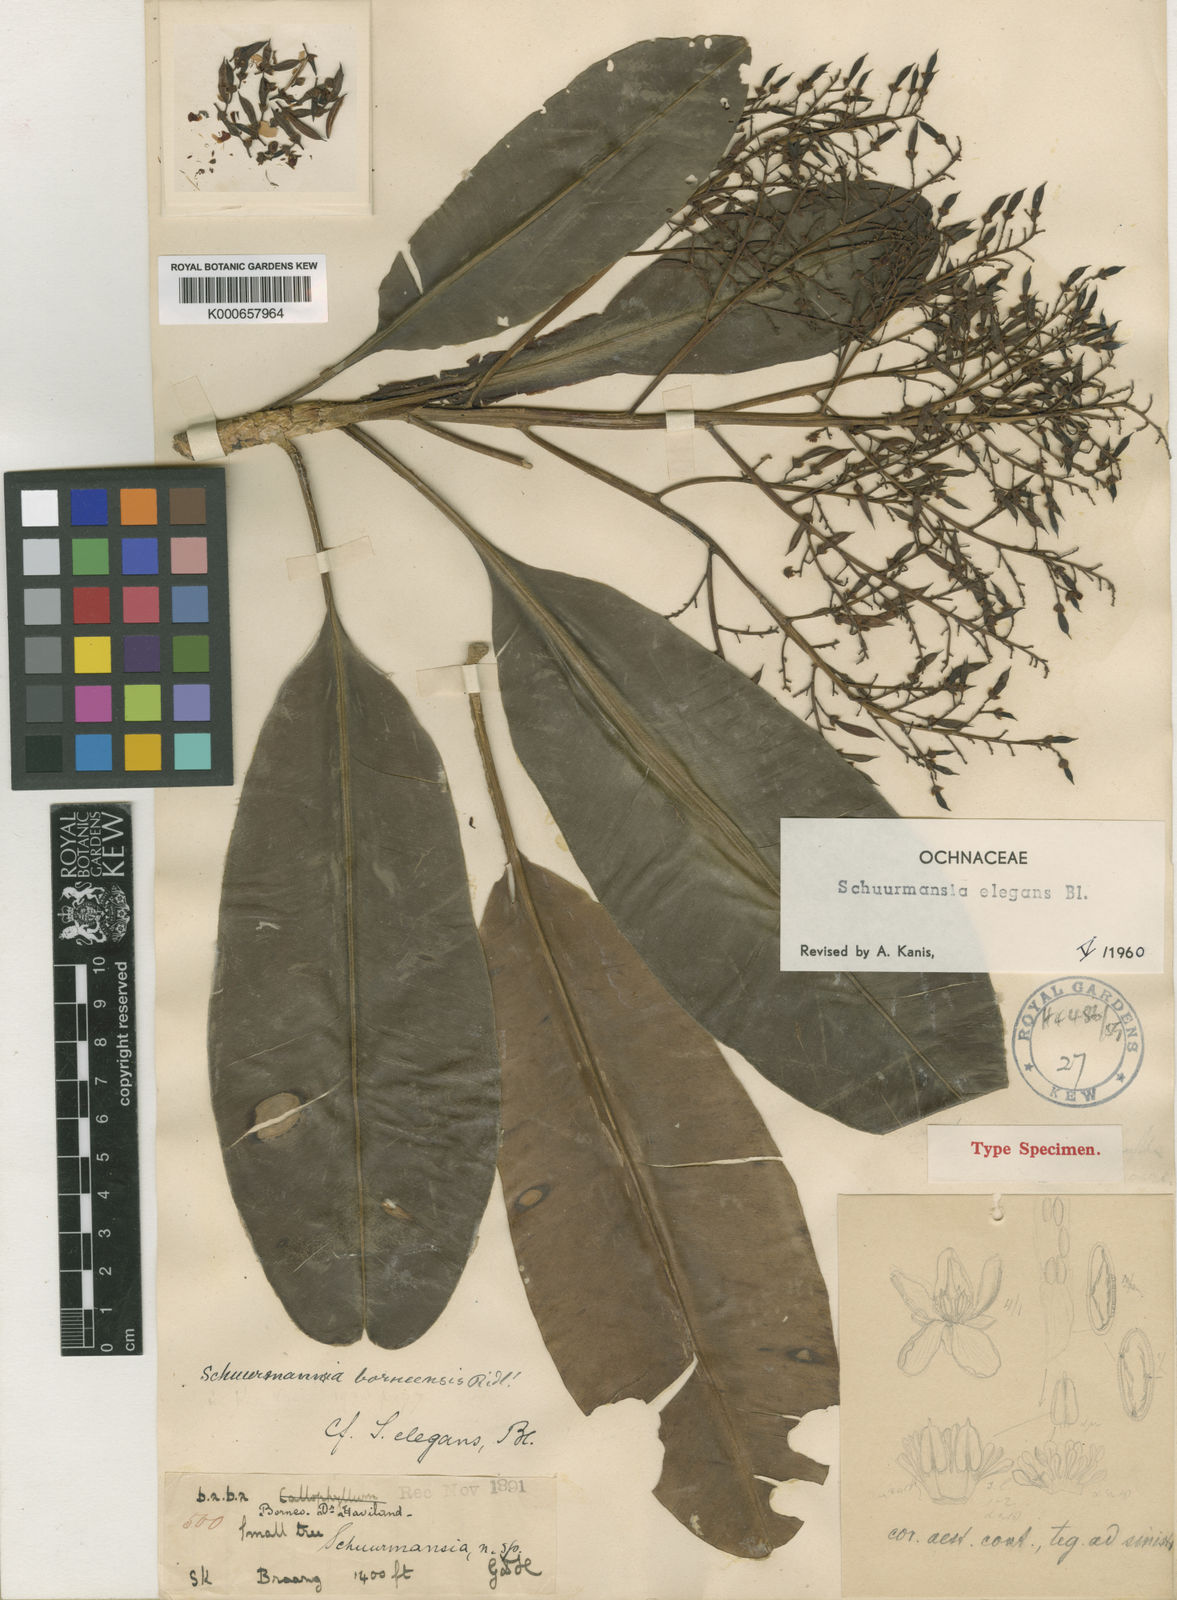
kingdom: Plantae
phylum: Tracheophyta
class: Magnoliopsida
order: Malpighiales
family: Ochnaceae
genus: Schuurmansia
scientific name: Schuurmansia elegans
